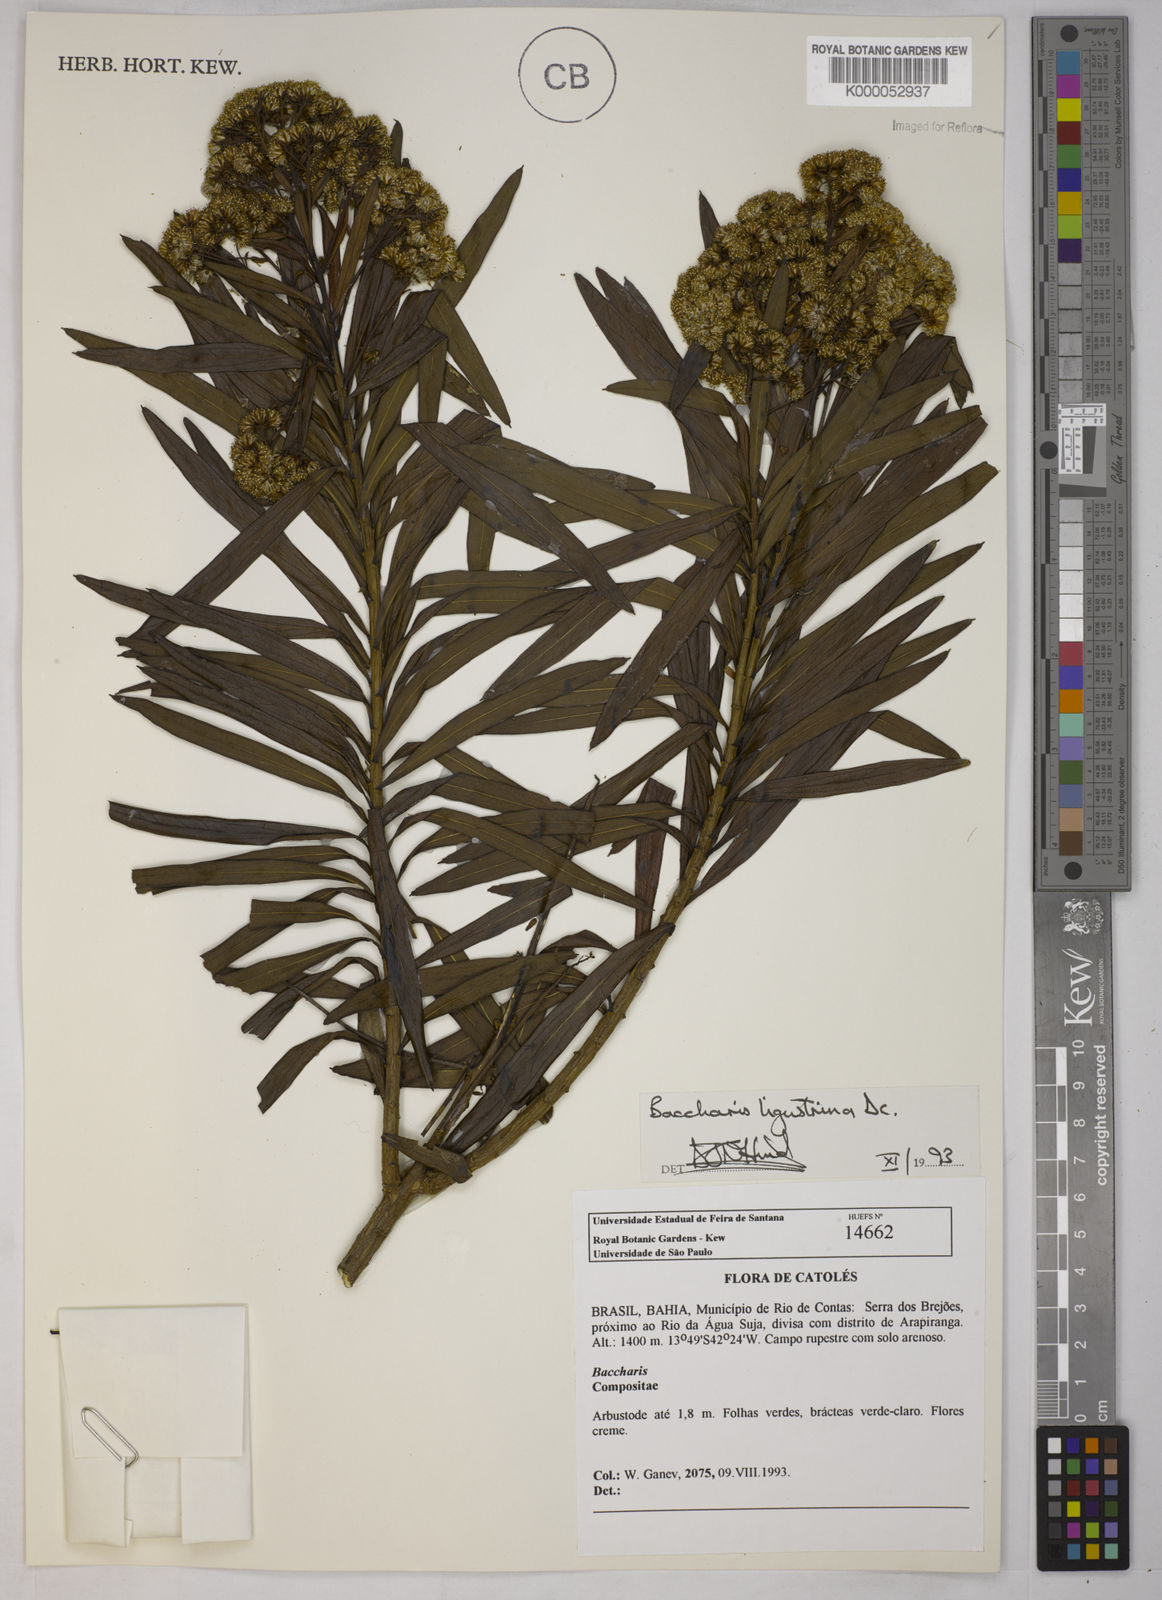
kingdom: Plantae
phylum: Tracheophyta
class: Magnoliopsida
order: Asterales
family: Asteraceae
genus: Baccharis
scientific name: Baccharis ligustrina
